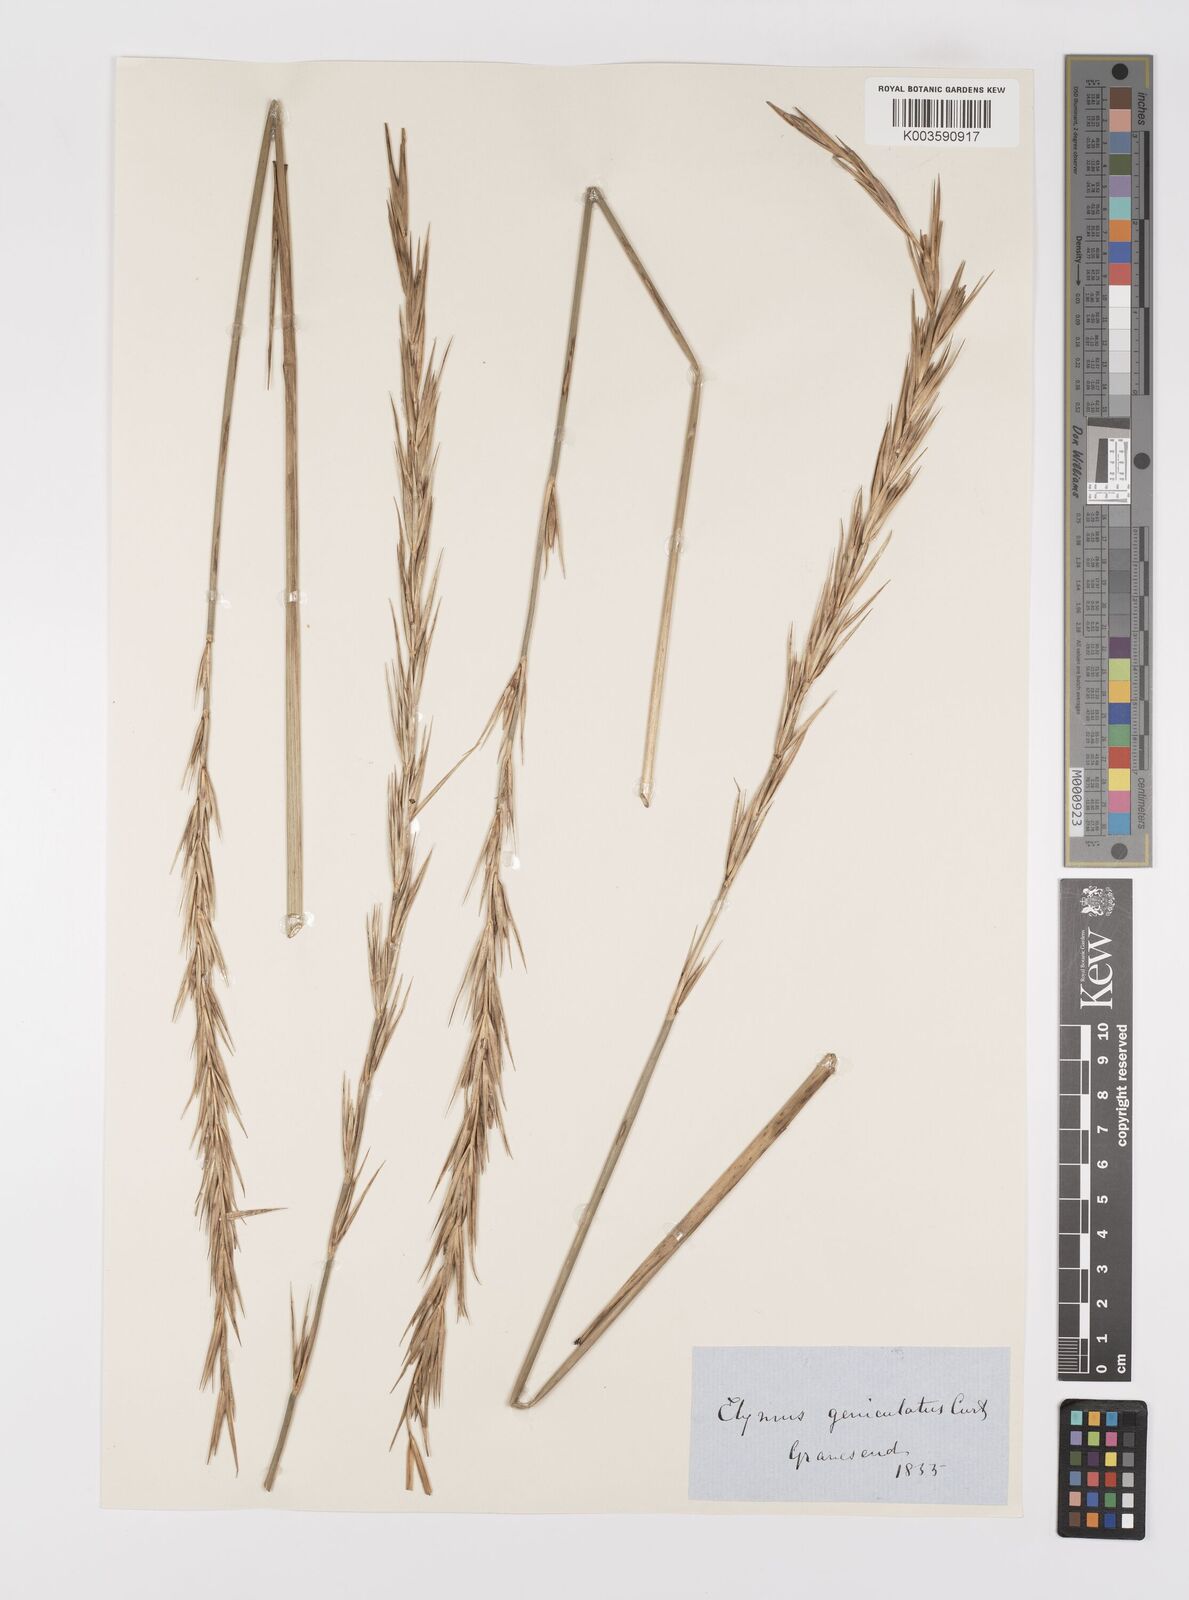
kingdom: Plantae
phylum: Tracheophyta
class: Liliopsida
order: Poales
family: Poaceae
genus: Leymus
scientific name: Leymus arenarius
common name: Lyme-grass
